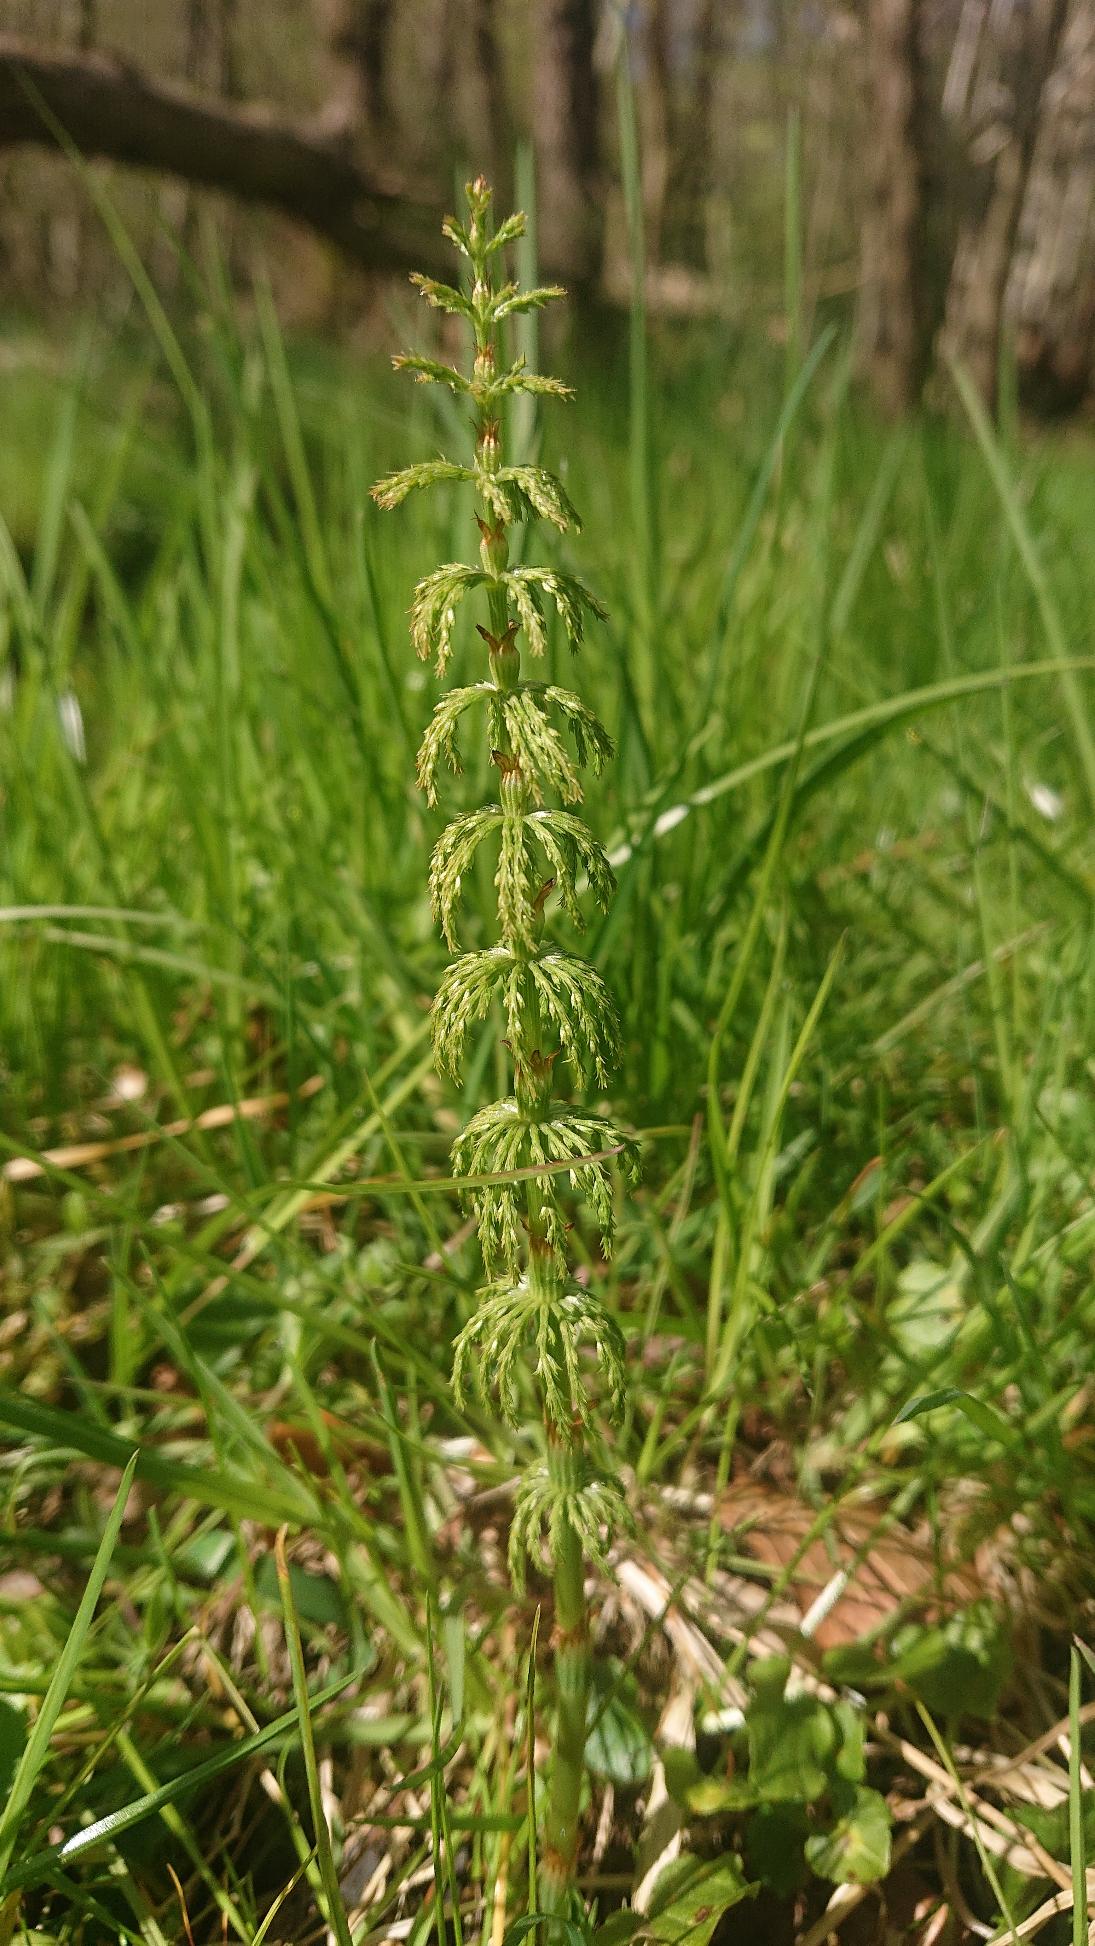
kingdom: Plantae
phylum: Tracheophyta
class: Polypodiopsida
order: Equisetales
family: Equisetaceae
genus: Equisetum
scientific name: Equisetum sylvaticum
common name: Skov-padderok
